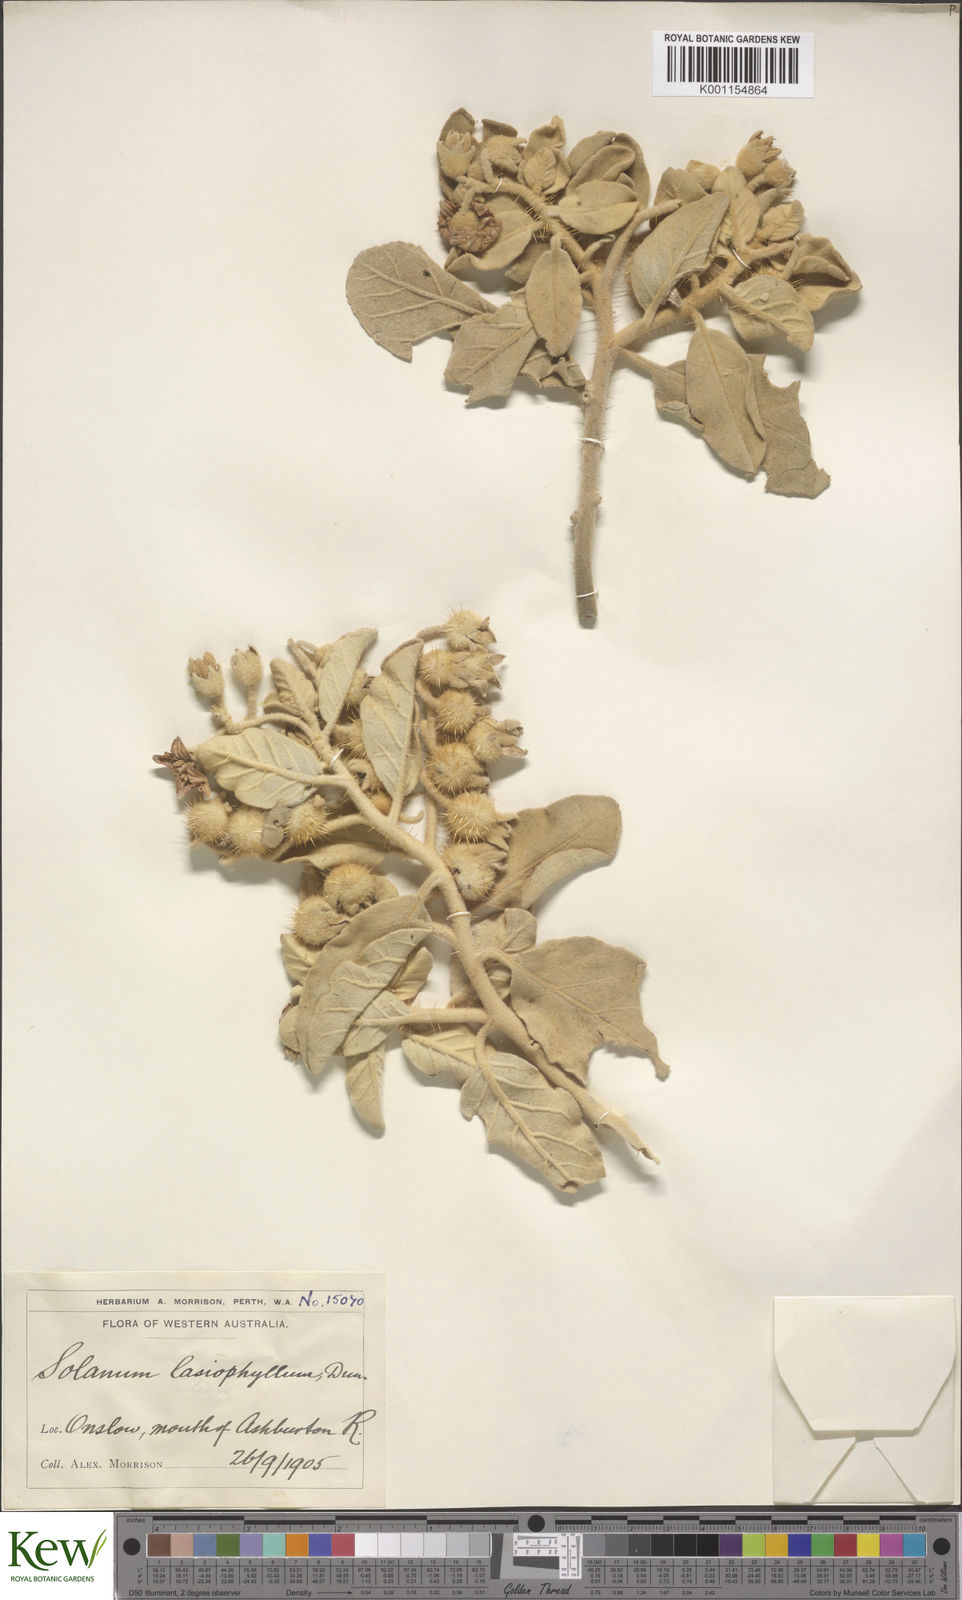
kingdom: Plantae
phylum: Tracheophyta
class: Magnoliopsida
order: Solanales
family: Solanaceae
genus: Solanum
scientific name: Solanum lasiophyllum
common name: Flannelbush
